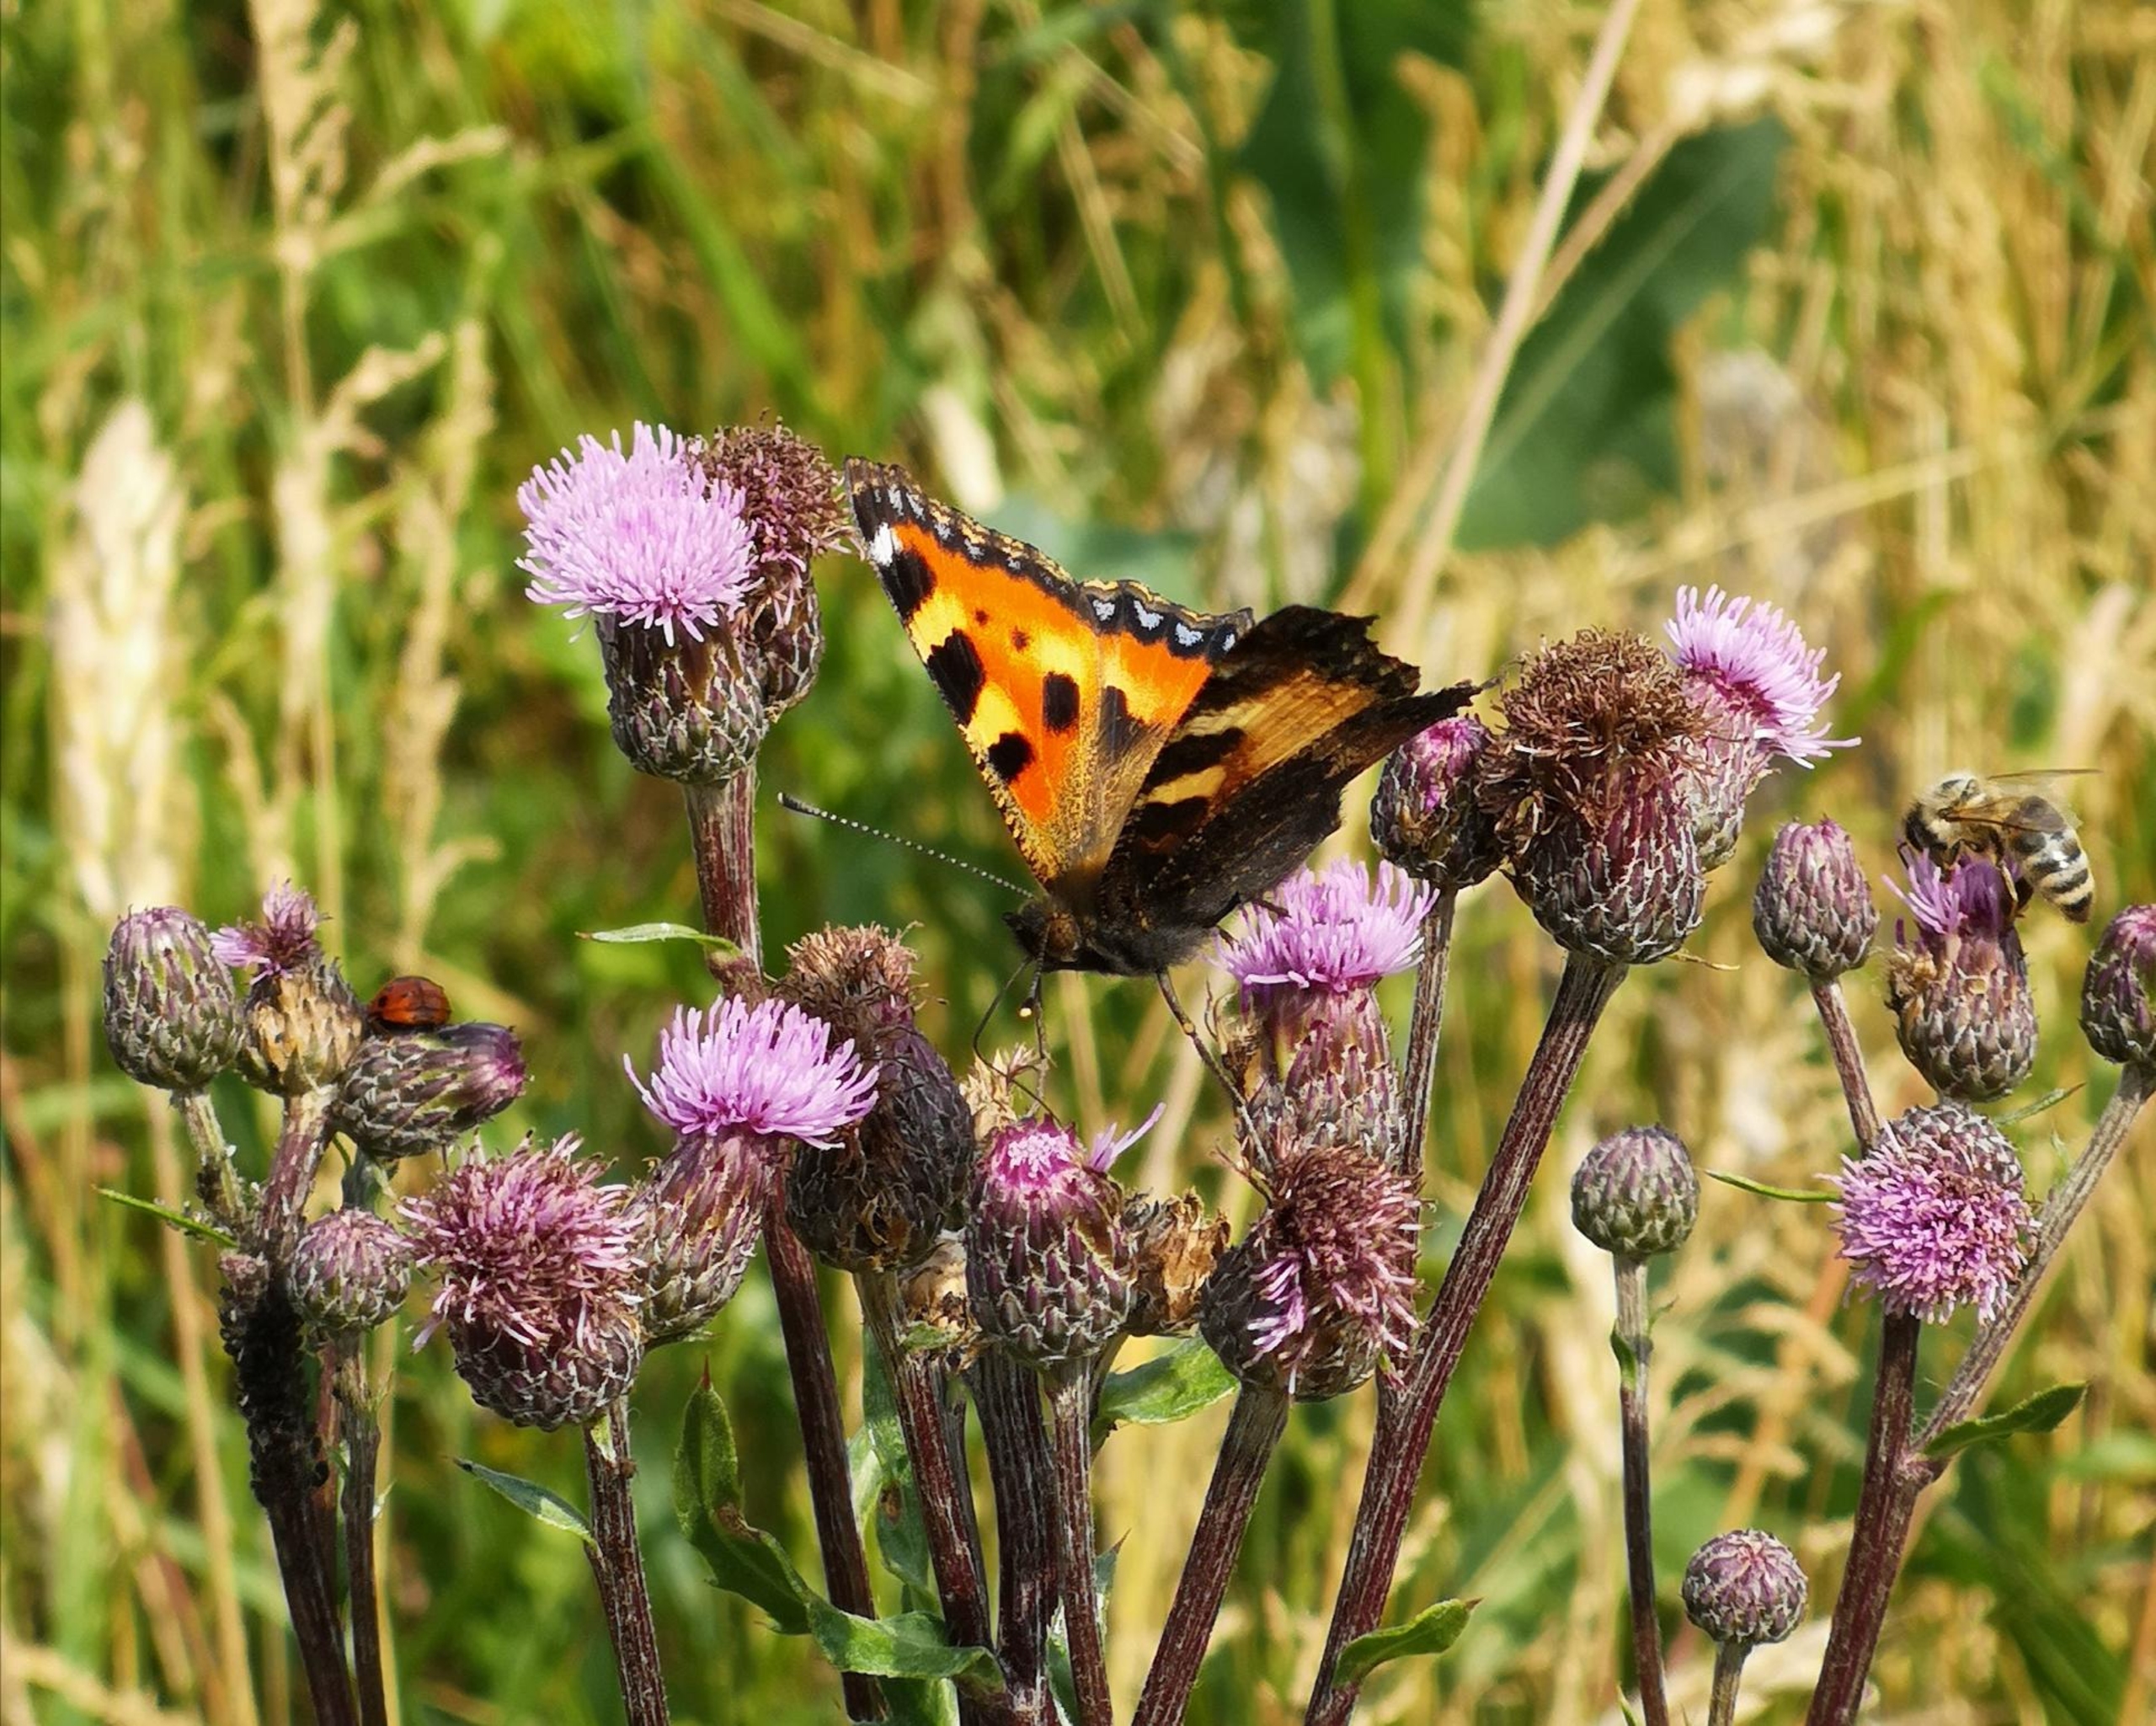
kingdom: Animalia
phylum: Arthropoda
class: Insecta
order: Lepidoptera
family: Nymphalidae
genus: Aglais
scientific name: Aglais urticae
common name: Nældens takvinge
